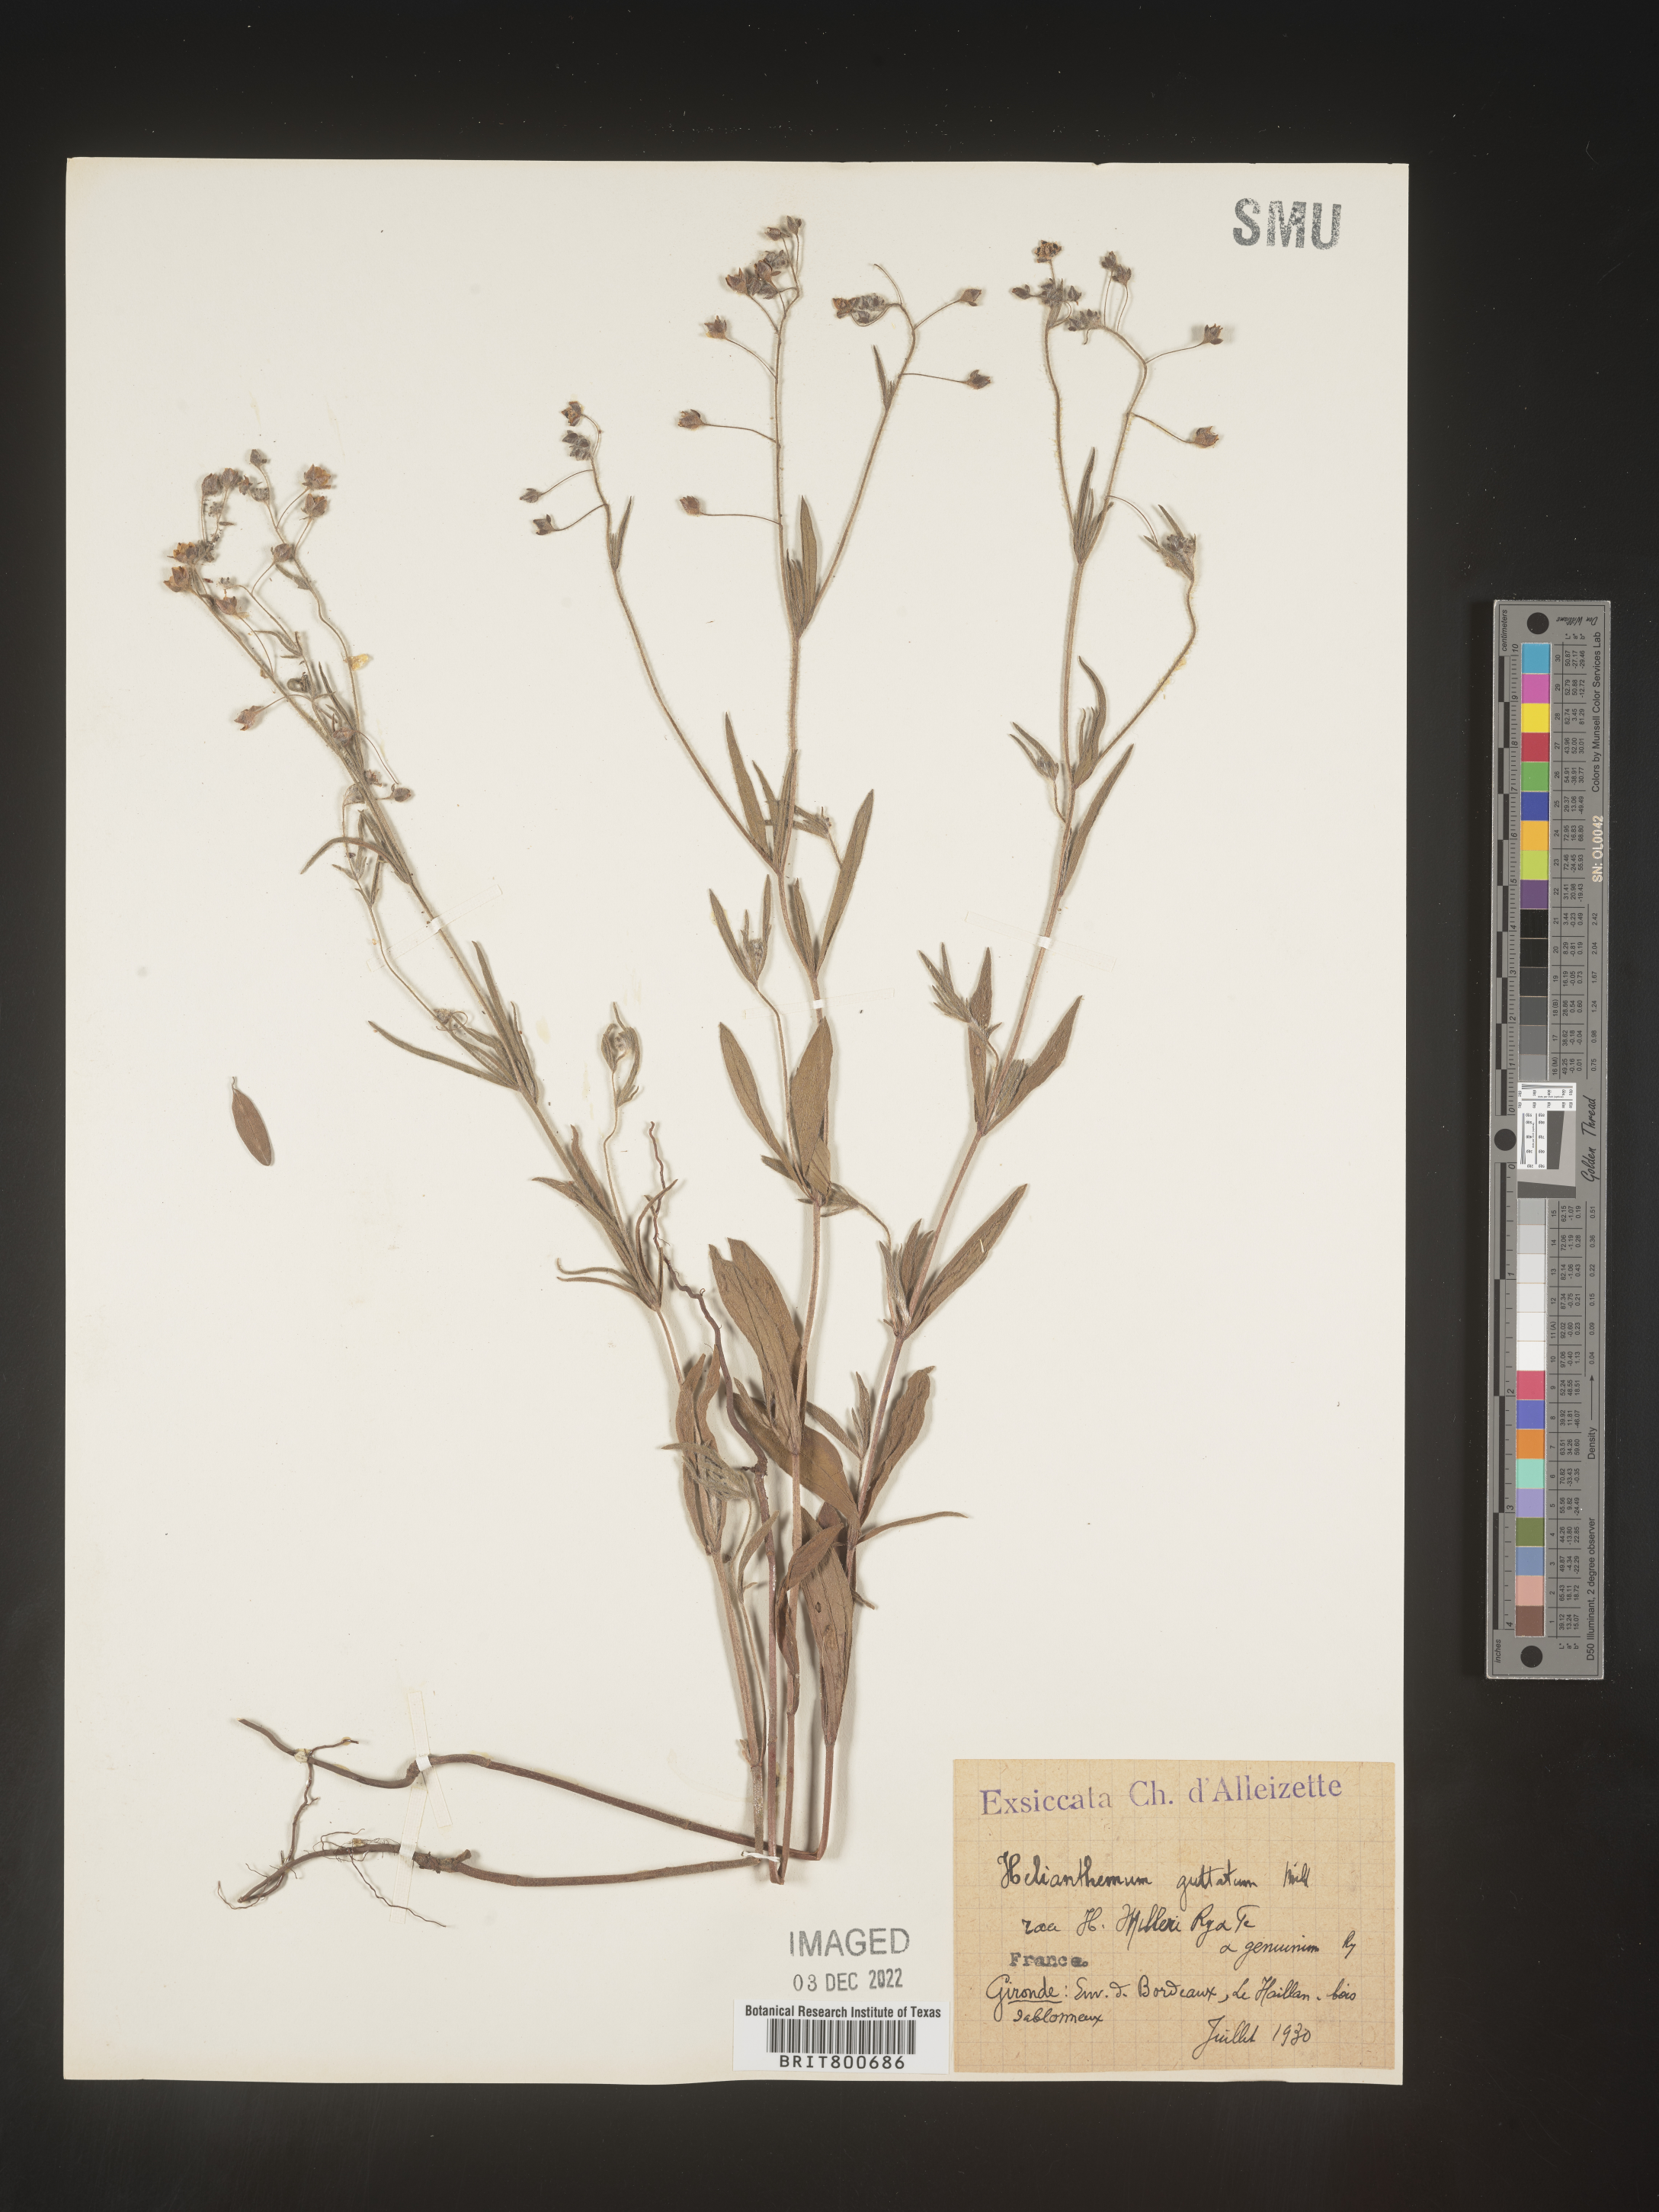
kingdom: Plantae
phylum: Tracheophyta
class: Magnoliopsida
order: Malvales
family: Cistaceae
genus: Helianthemum
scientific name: Helianthemum
